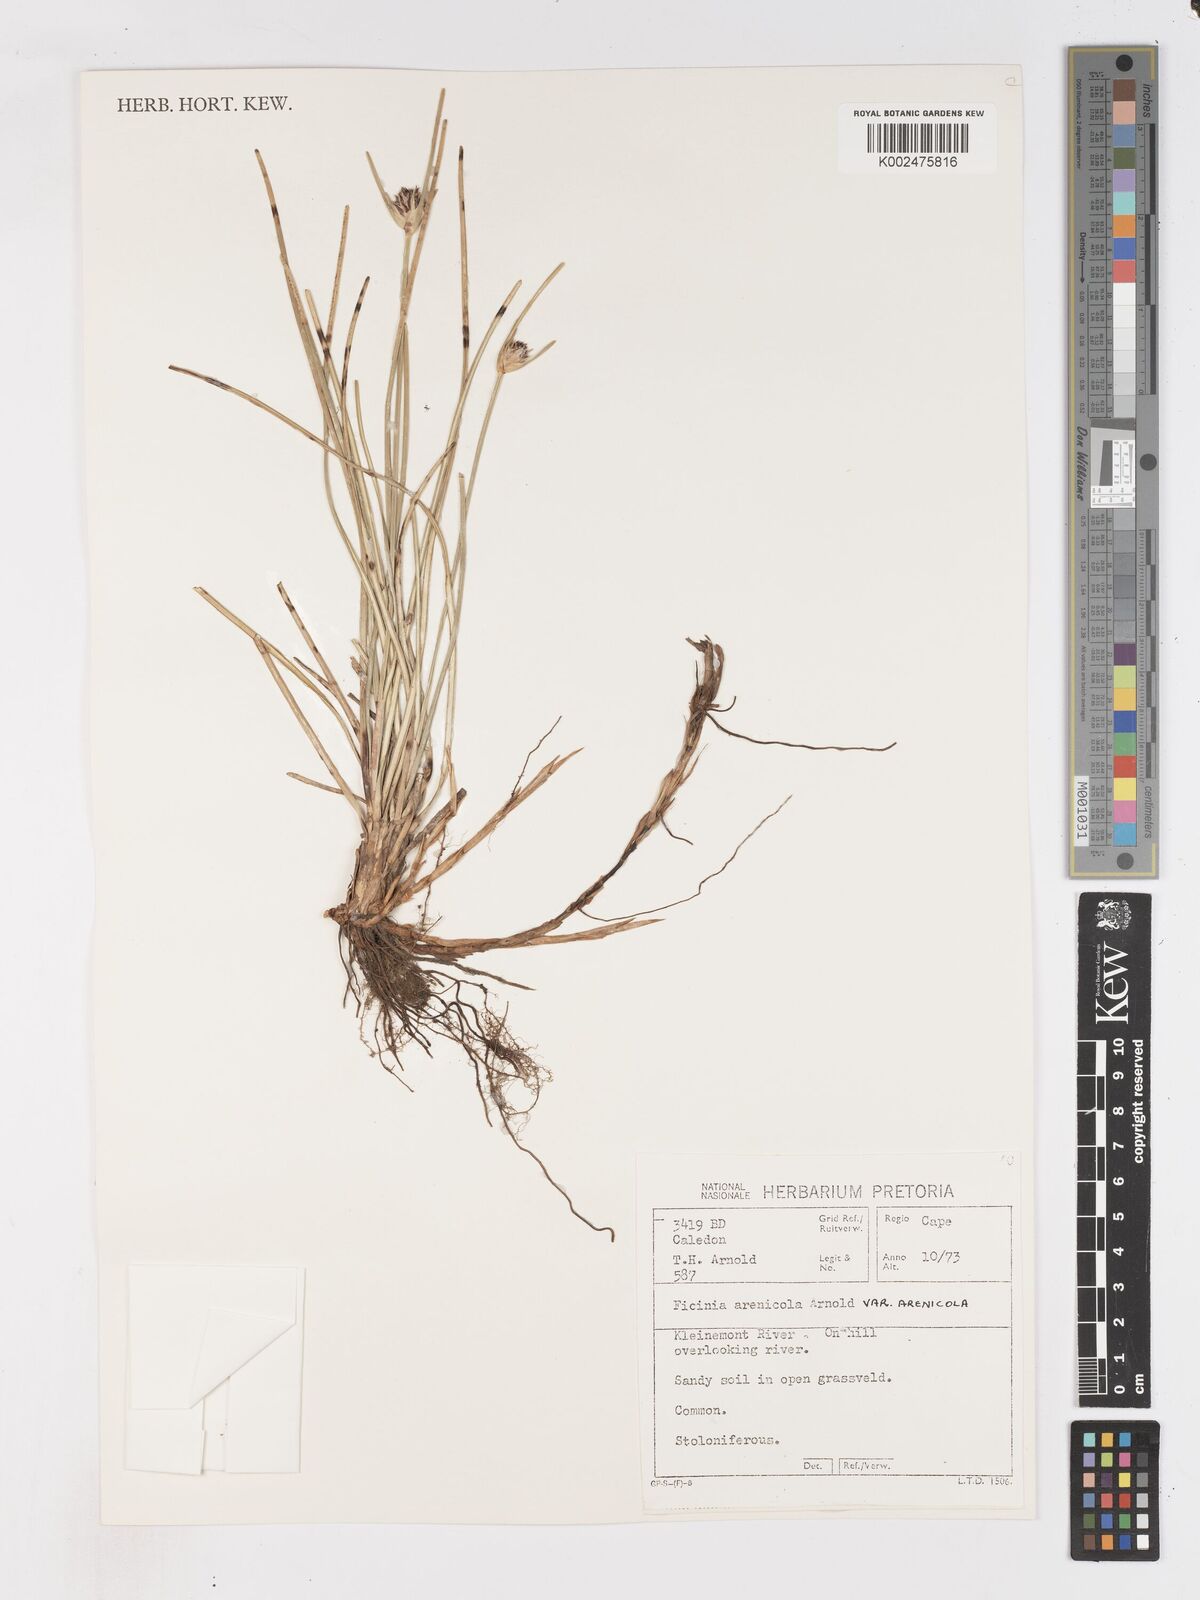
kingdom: Plantae
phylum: Tracheophyta
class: Liliopsida
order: Poales
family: Cyperaceae
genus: Ficinia
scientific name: Ficinia arenicola
